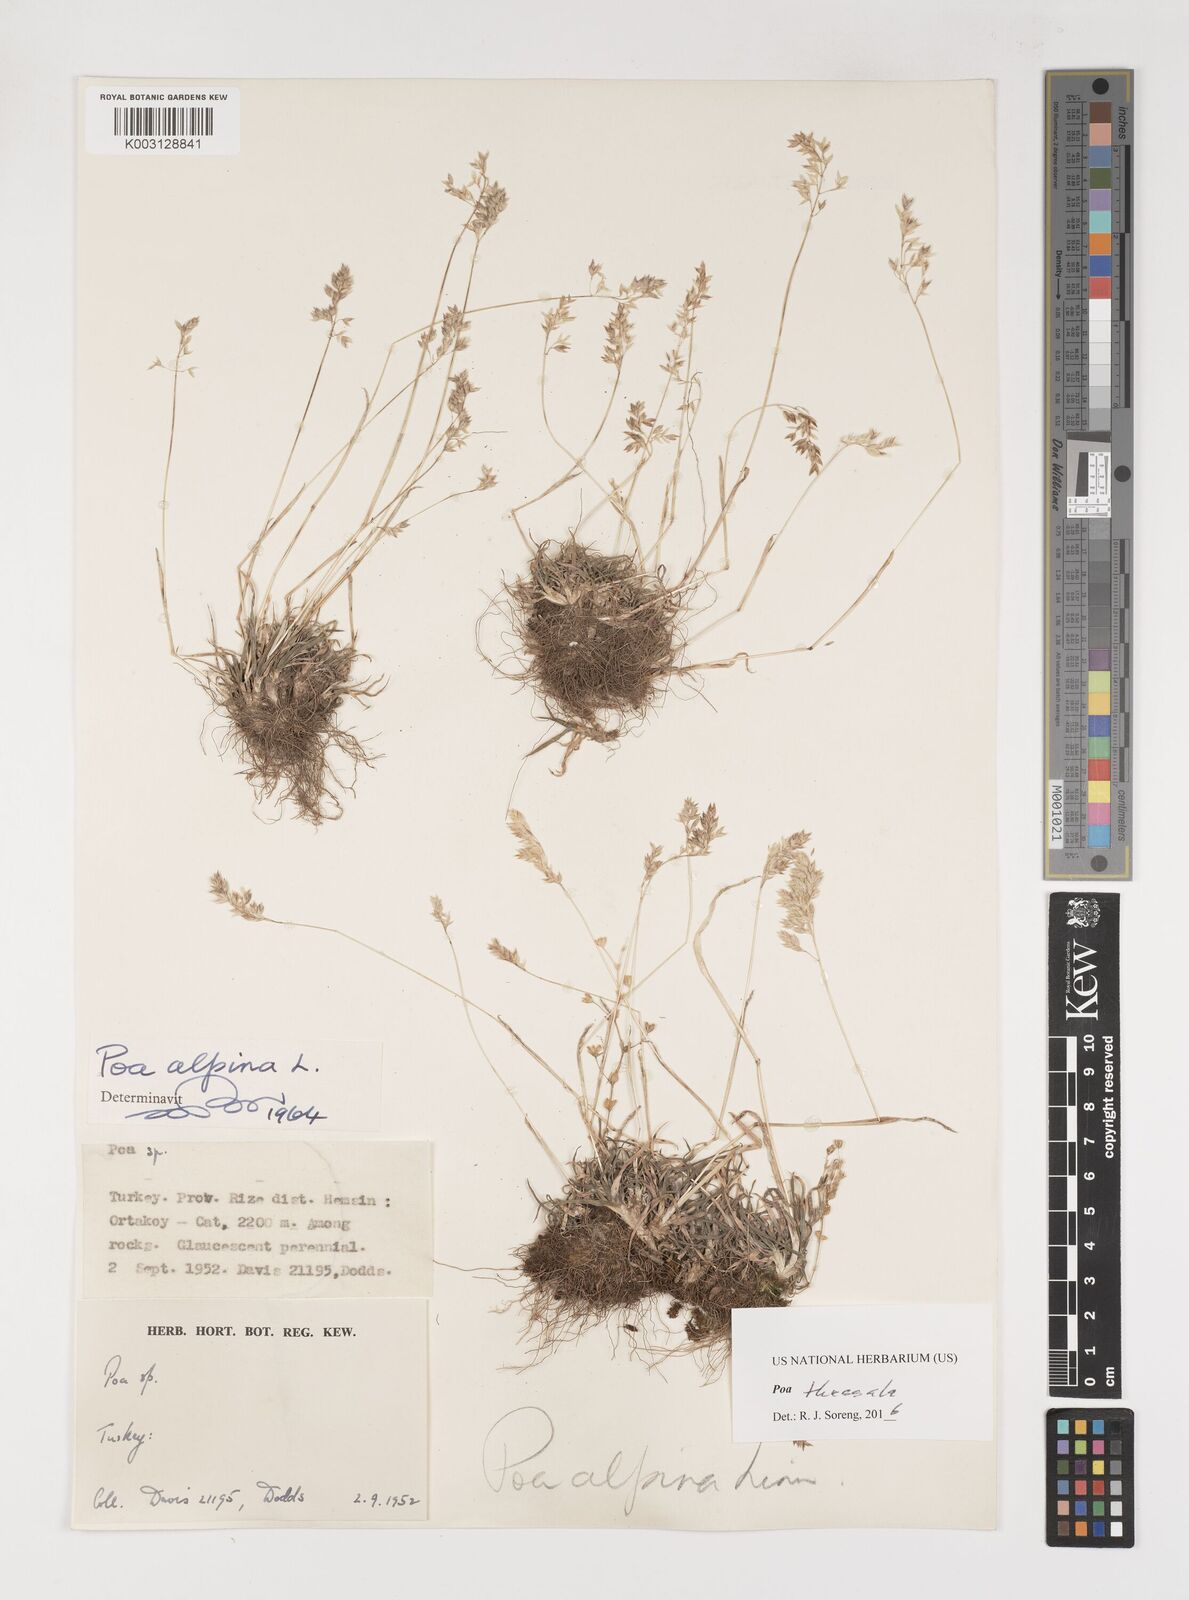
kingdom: Plantae
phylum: Tracheophyta
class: Liliopsida
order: Poales
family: Poaceae
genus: Poa
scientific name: Poa thessala
